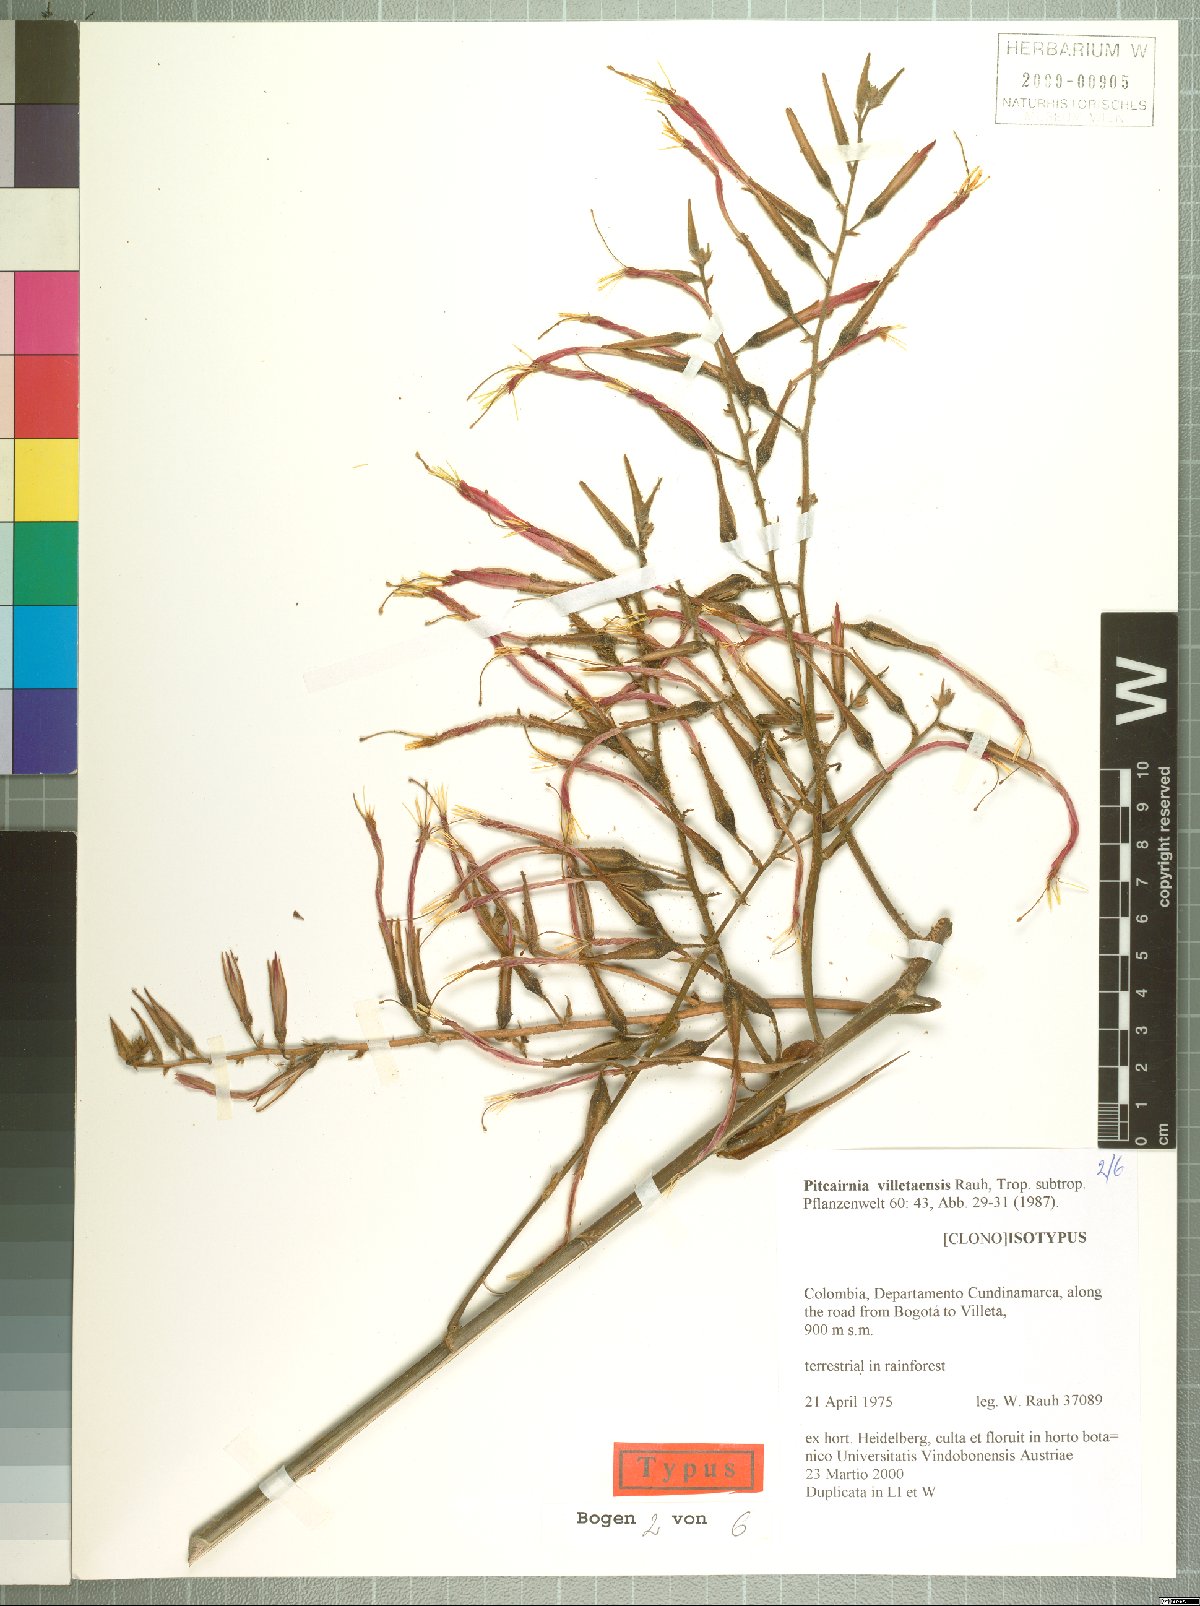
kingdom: Plantae
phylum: Tracheophyta
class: Liliopsida
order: Poales
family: Bromeliaceae
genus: Pitcairnia
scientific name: Pitcairnia villetaensis
